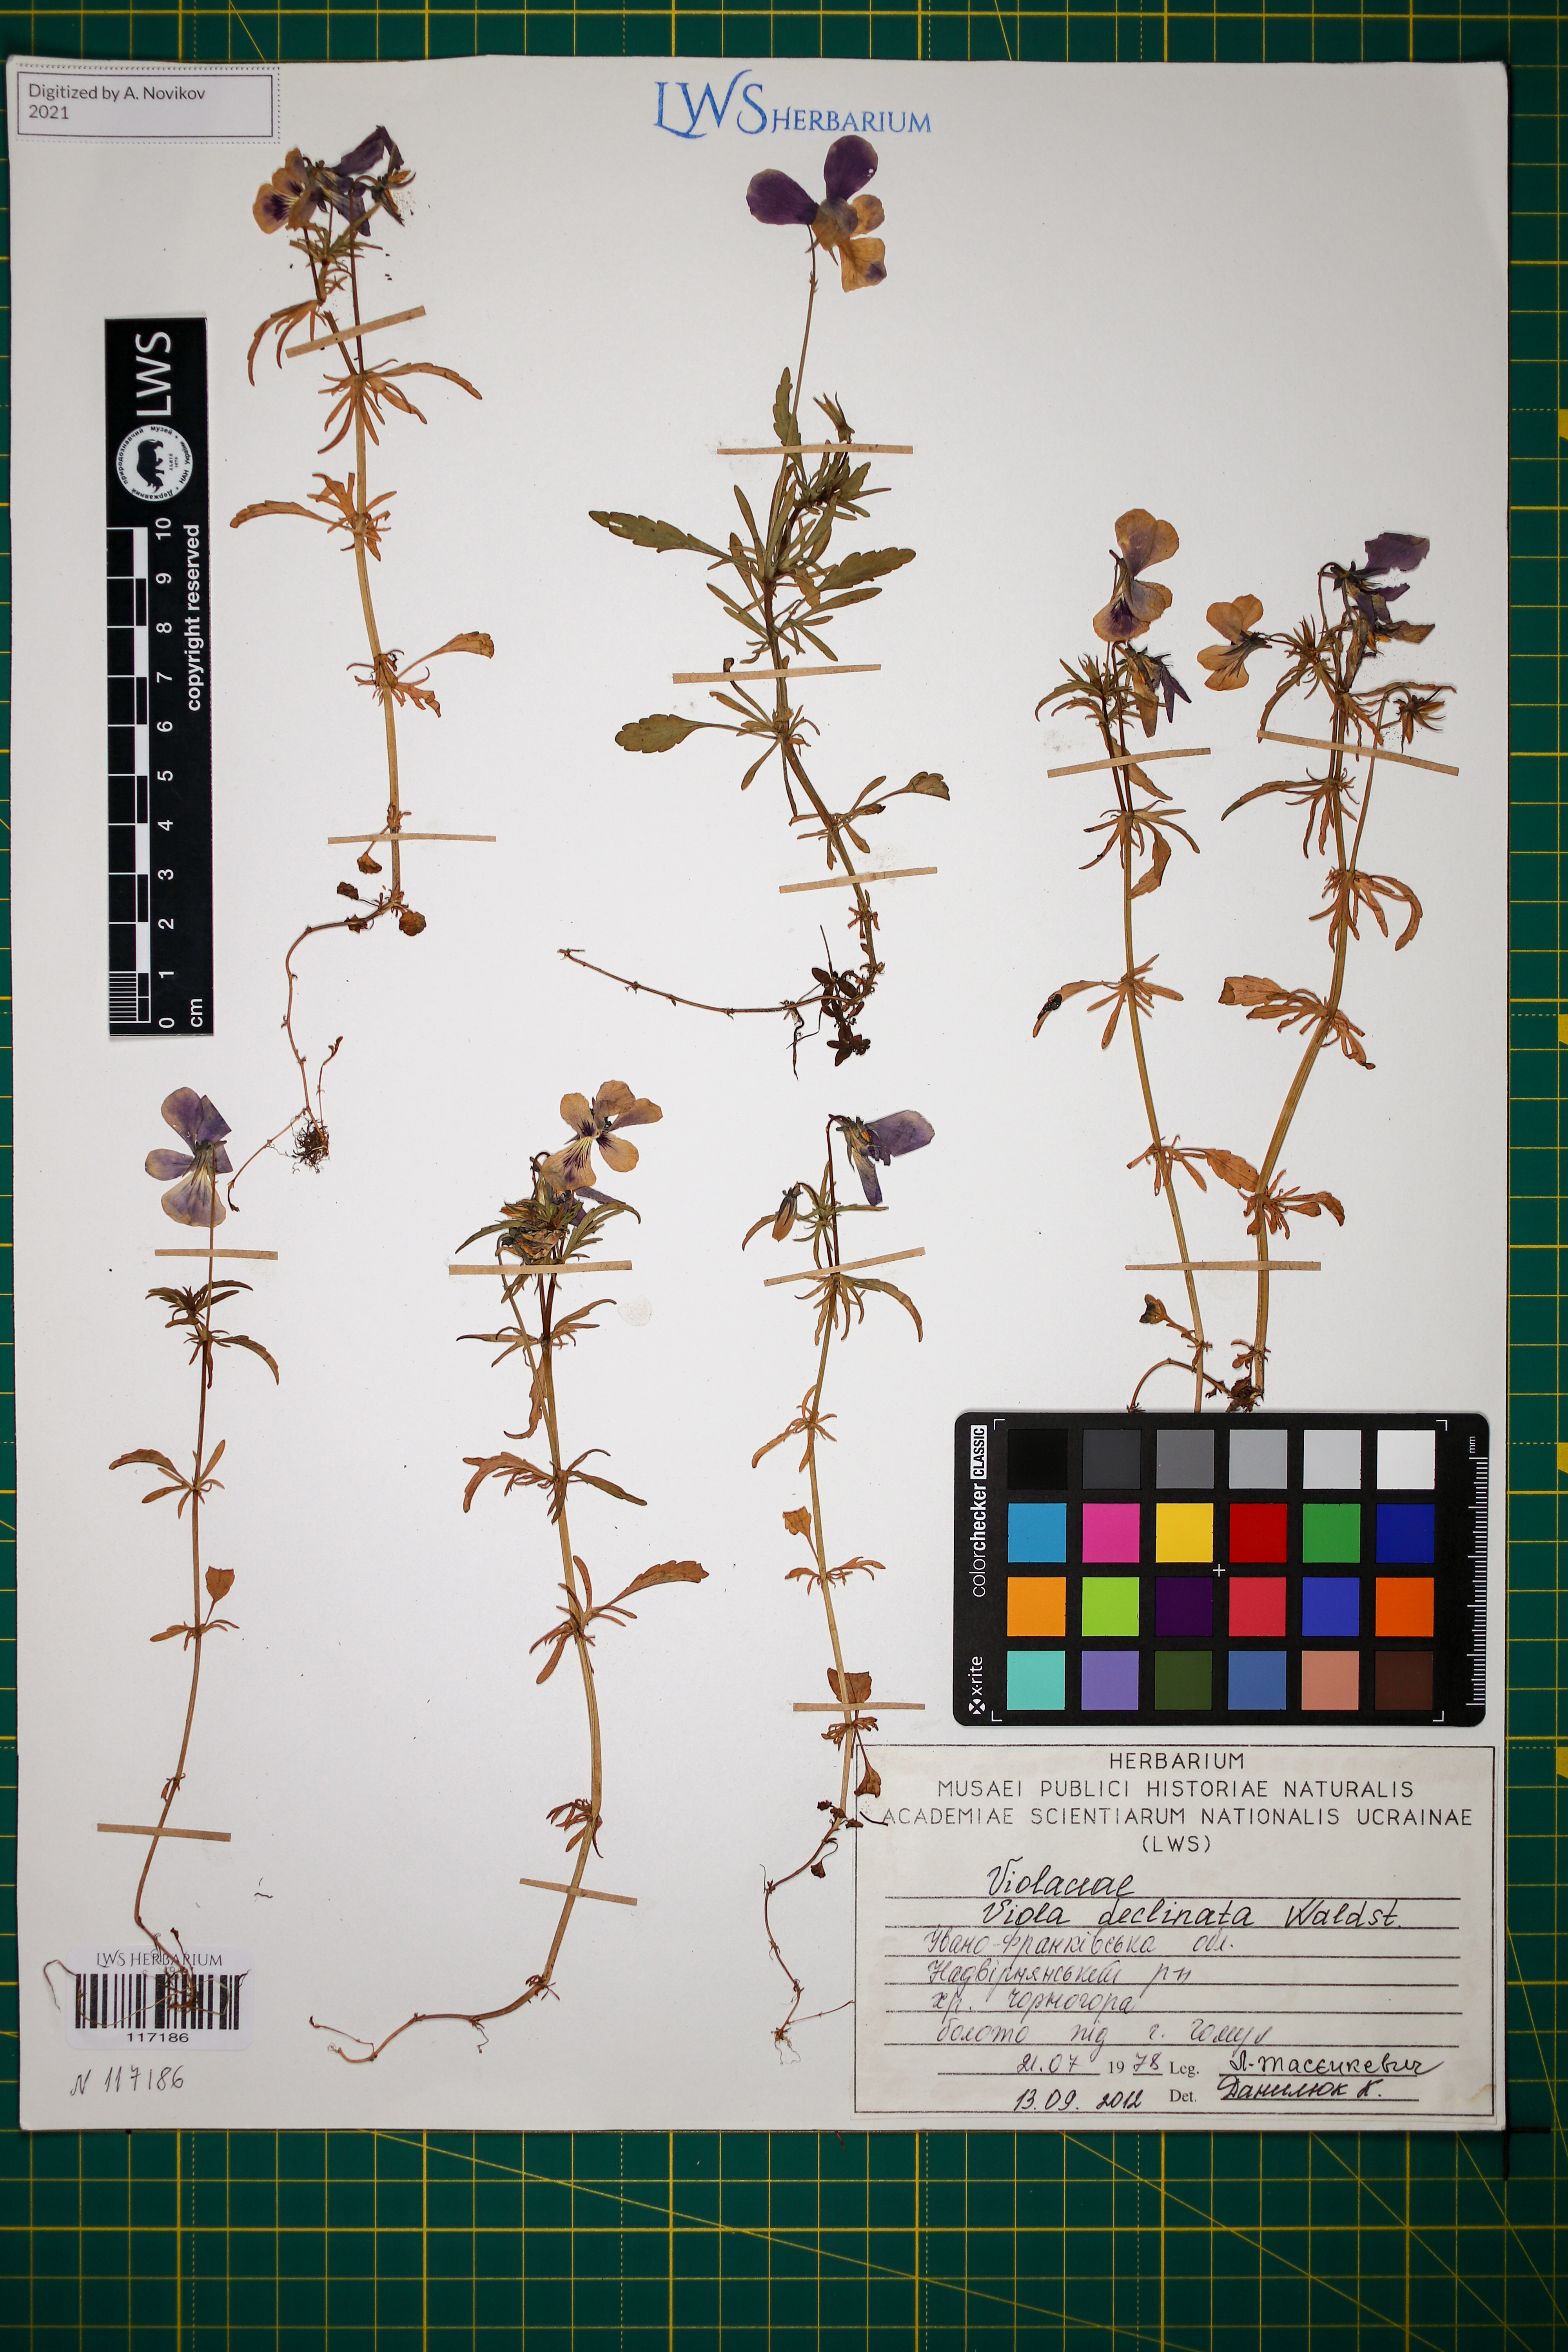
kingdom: Plantae
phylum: Tracheophyta
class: Magnoliopsida
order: Malpighiales
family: Violaceae
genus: Viola
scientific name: Viola declinata
